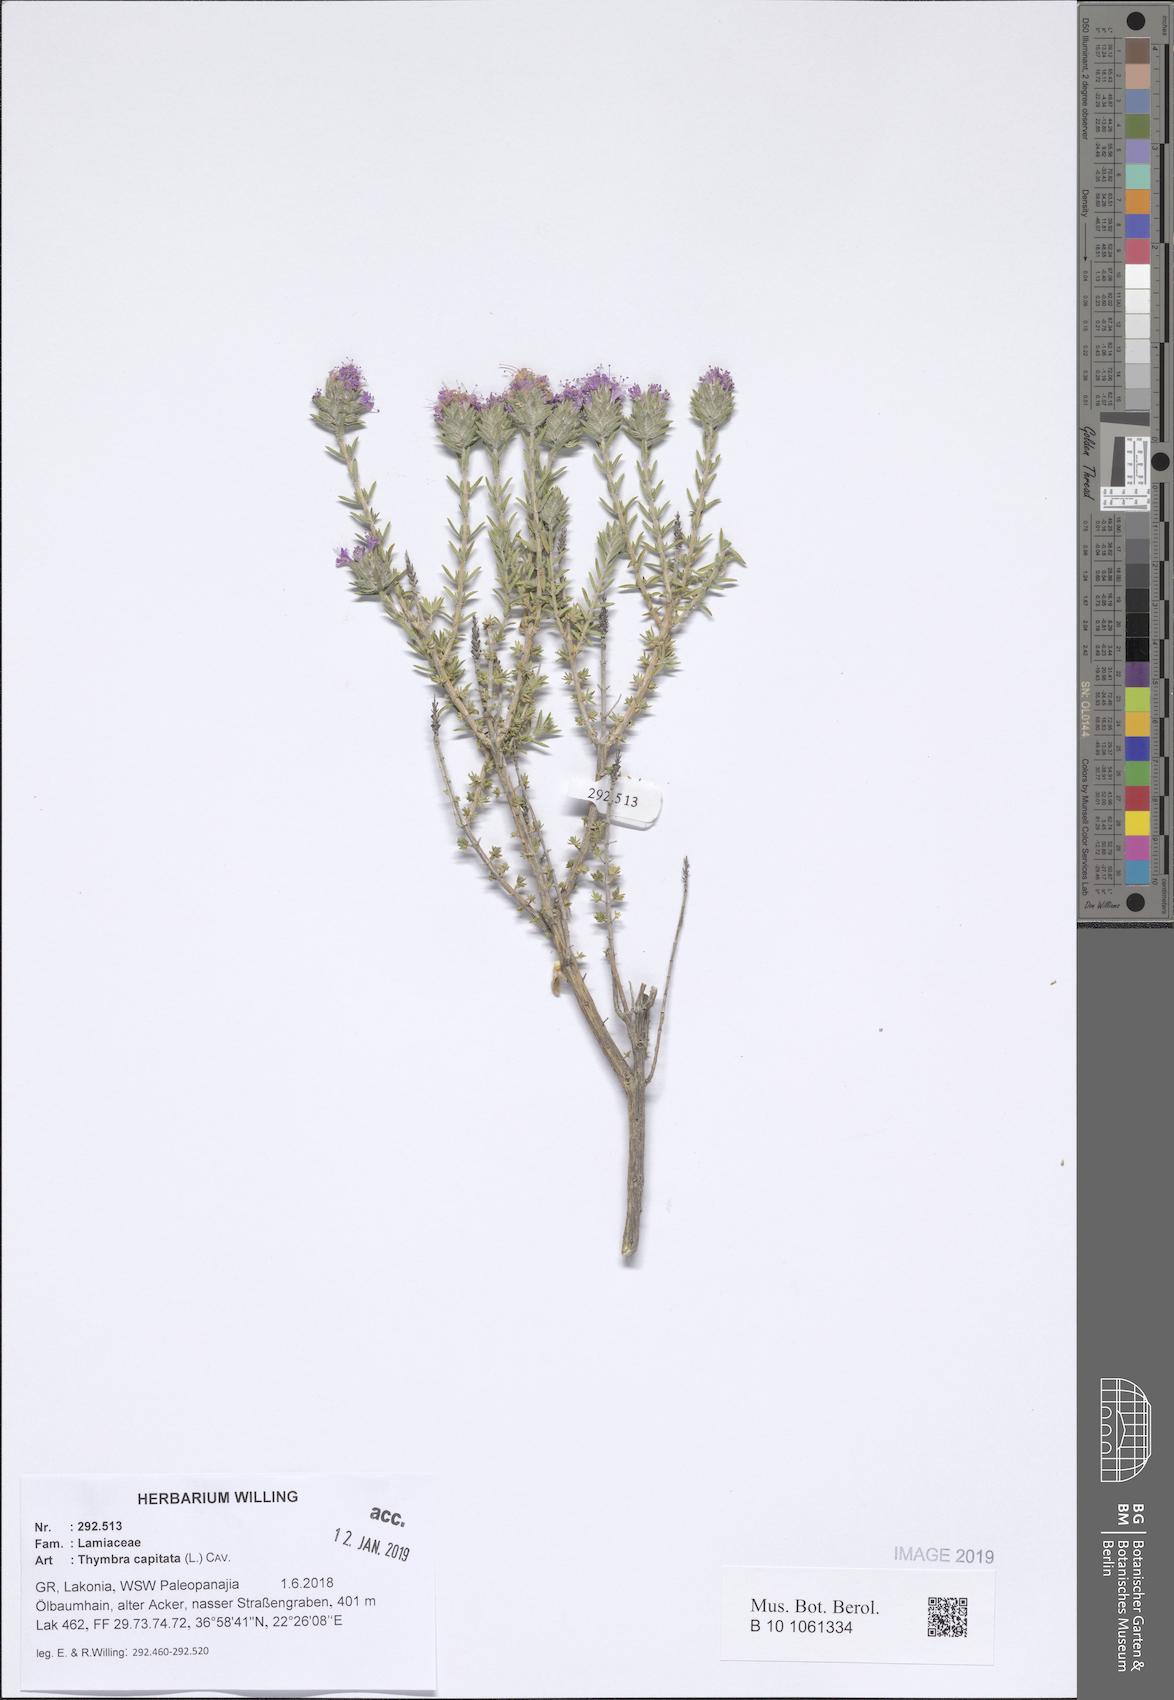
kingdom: Plantae
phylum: Tracheophyta
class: Magnoliopsida
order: Lamiales
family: Lamiaceae
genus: Thymbra
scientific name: Thymbra capitata
